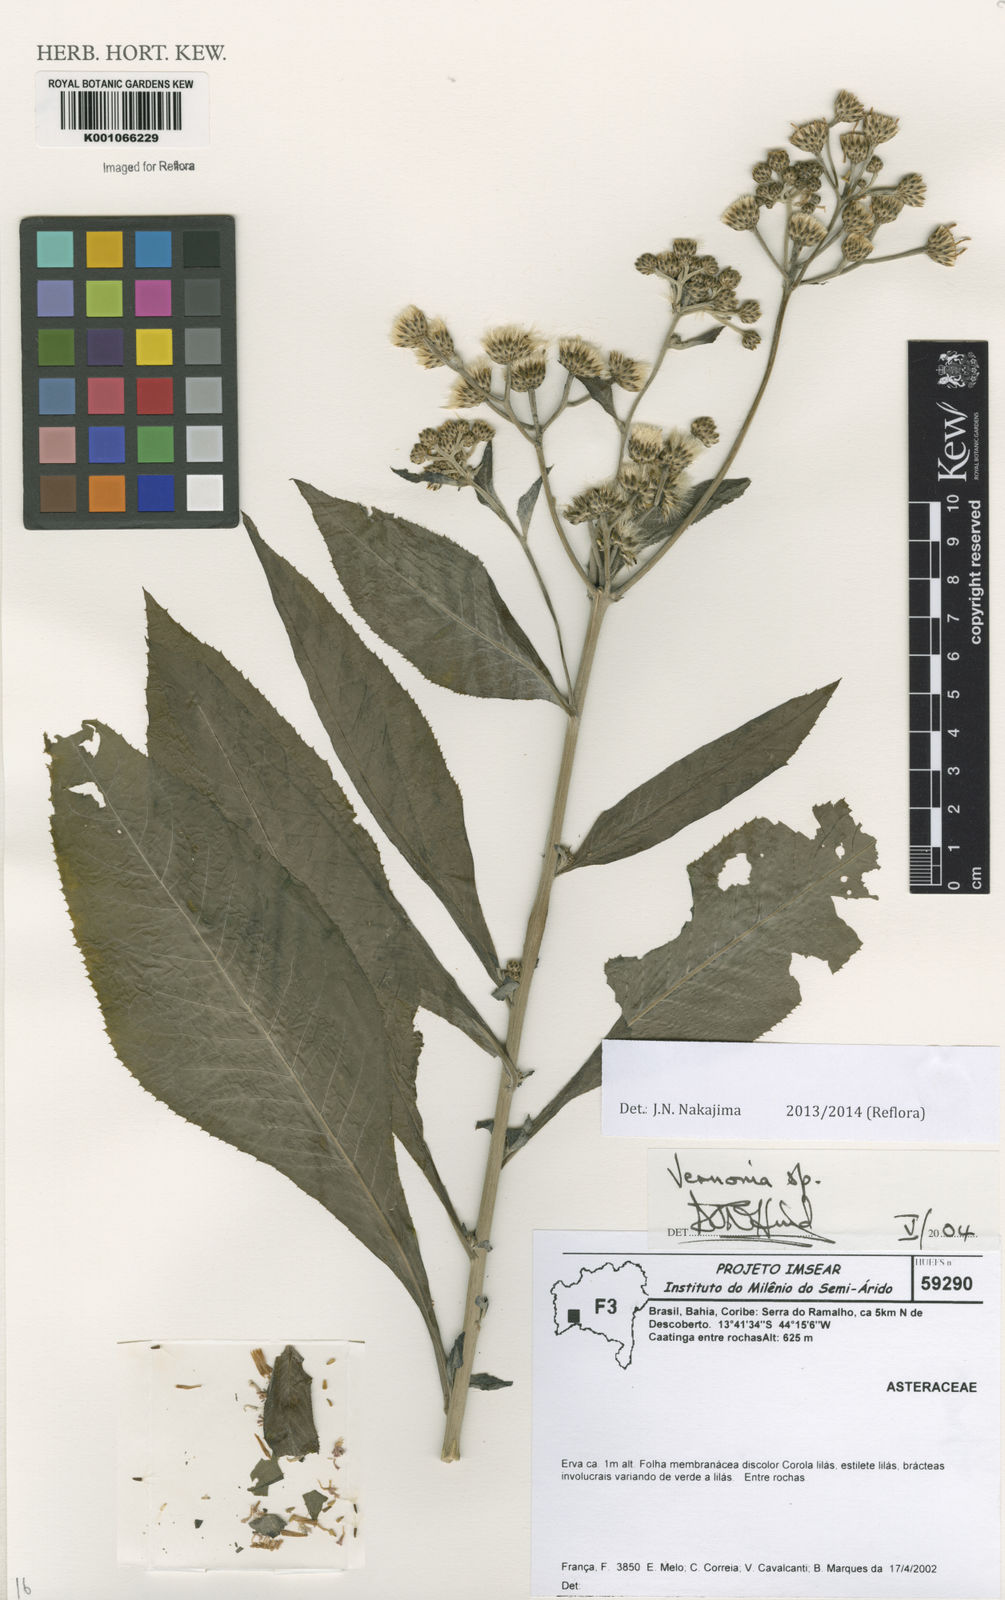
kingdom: Plantae
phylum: Tracheophyta
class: Magnoliopsida
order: Asterales
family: Asteraceae
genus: Vernonia
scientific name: Vernonia
